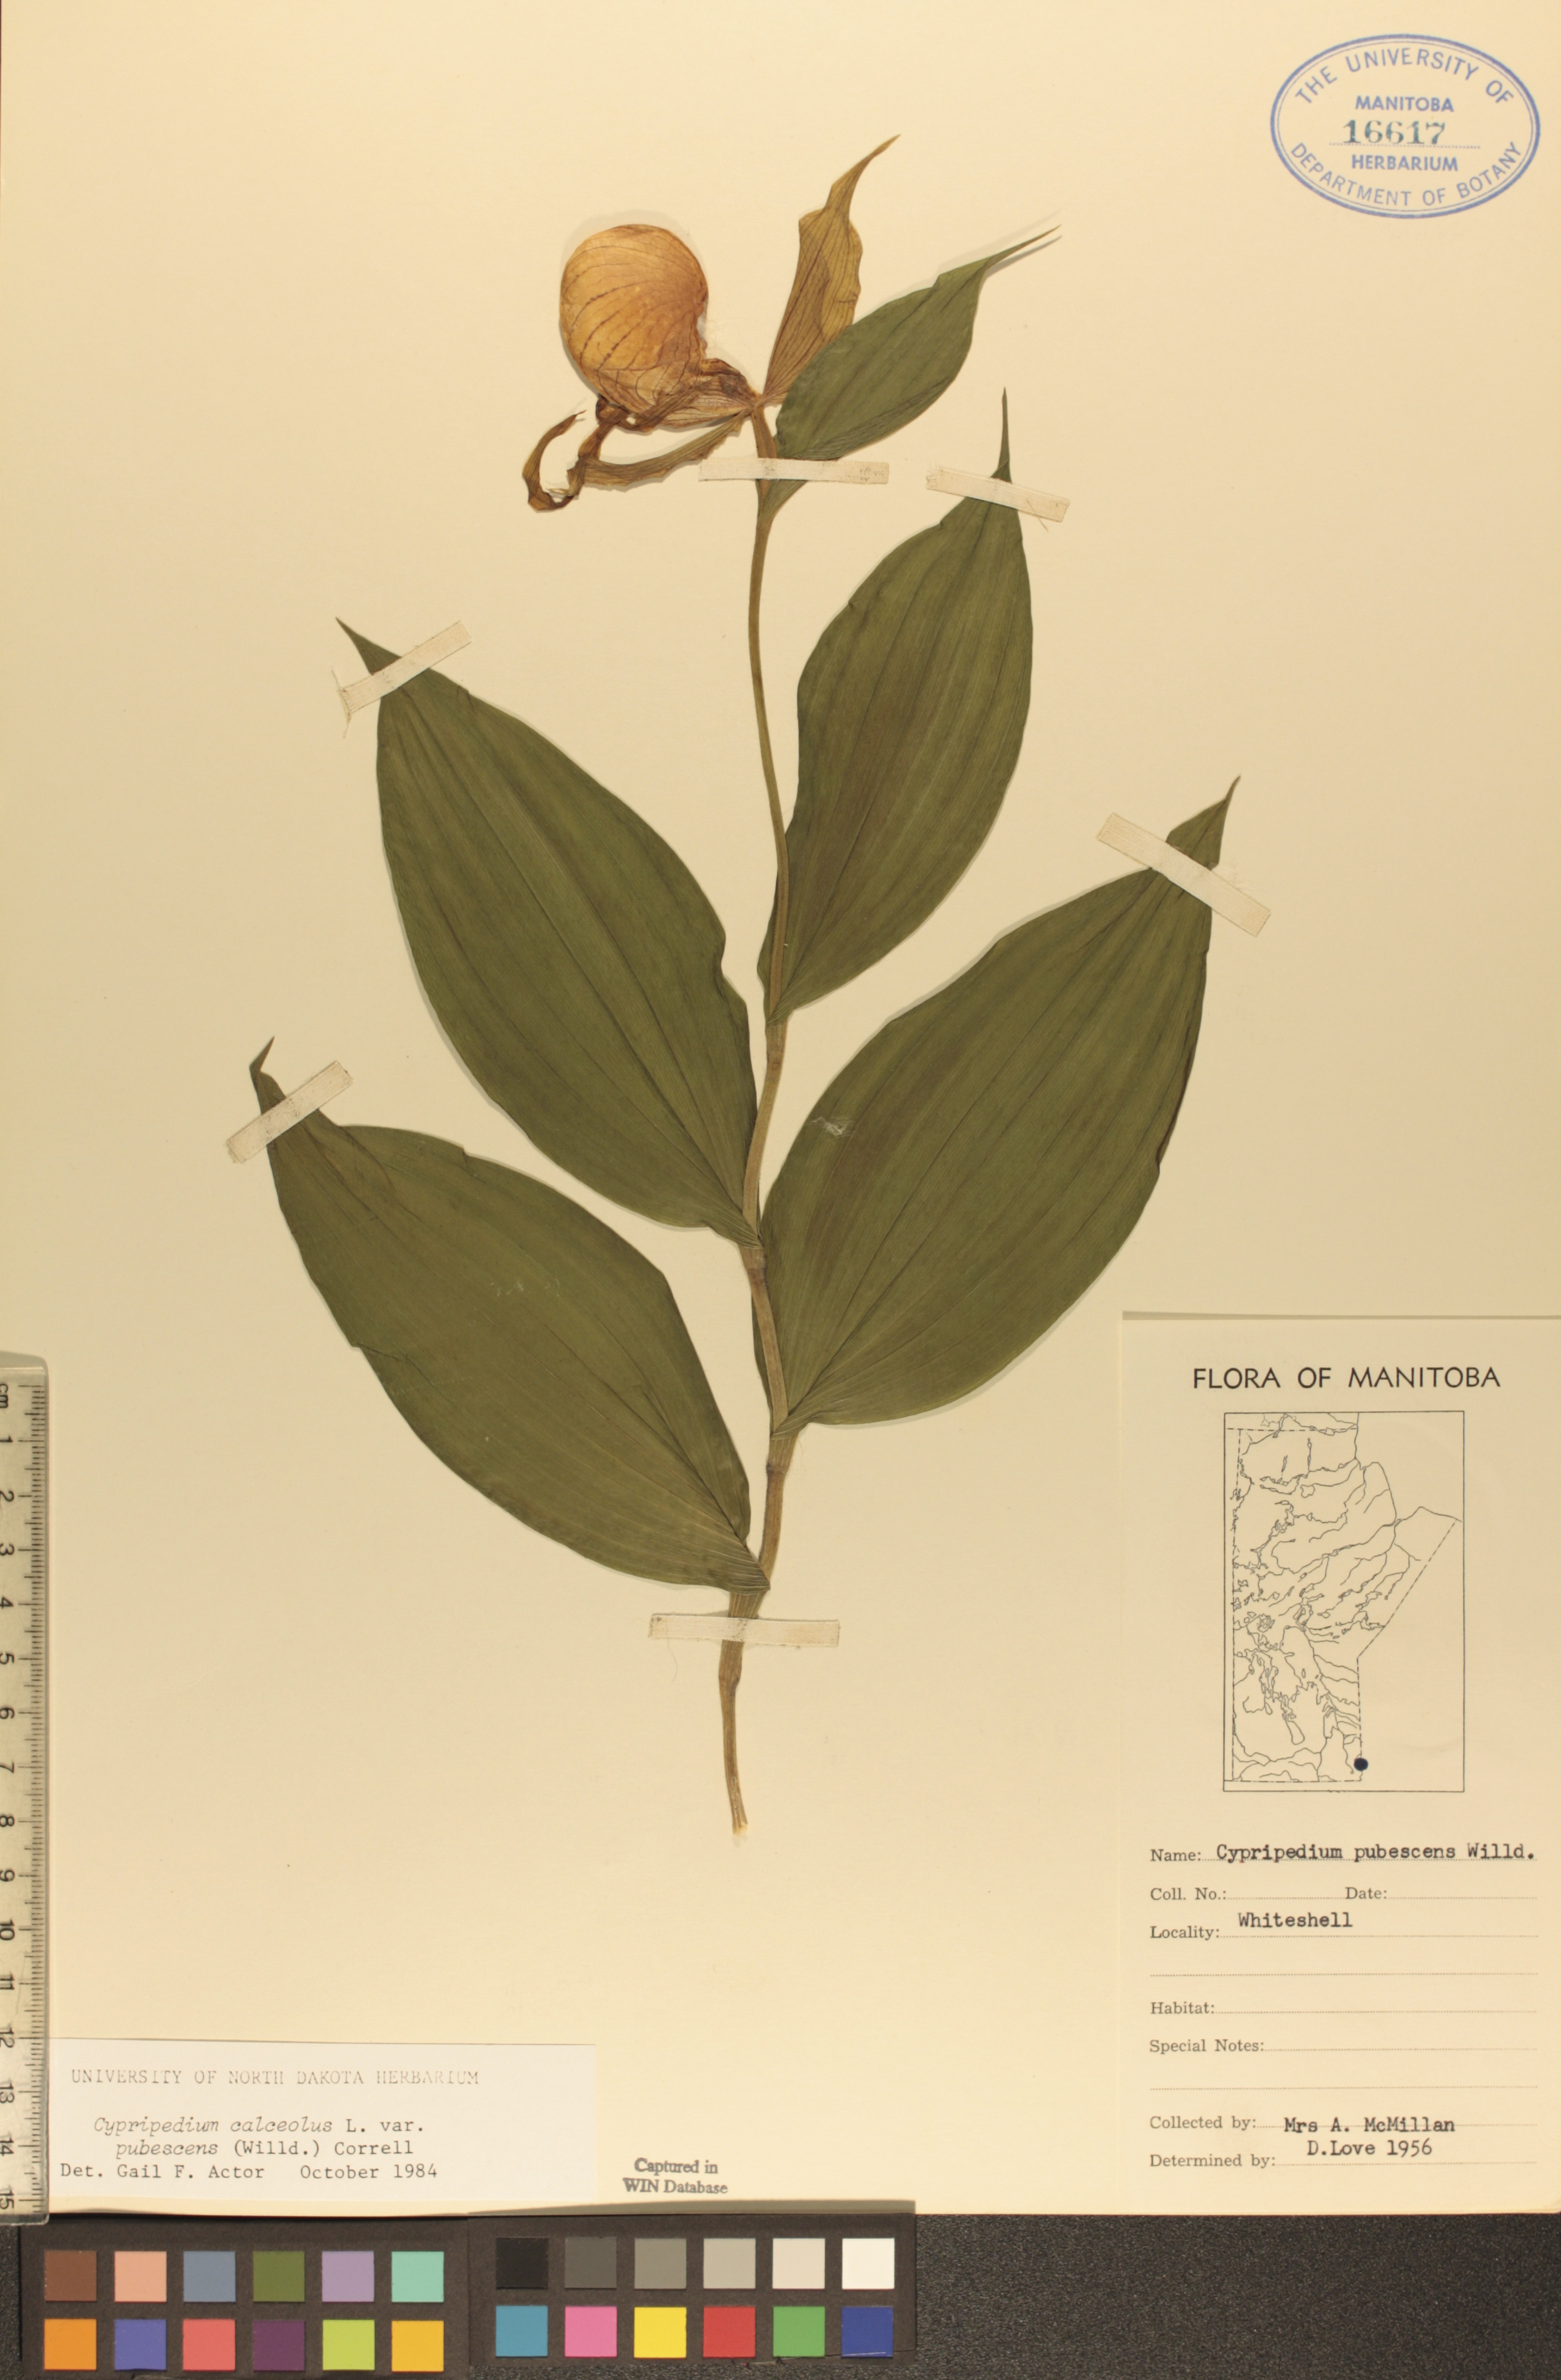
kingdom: Plantae
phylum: Tracheophyta
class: Liliopsida
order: Asparagales
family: Orchidaceae
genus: Cypripedium
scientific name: Cypripedium parviflorum
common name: American yellow lady's-slipper
